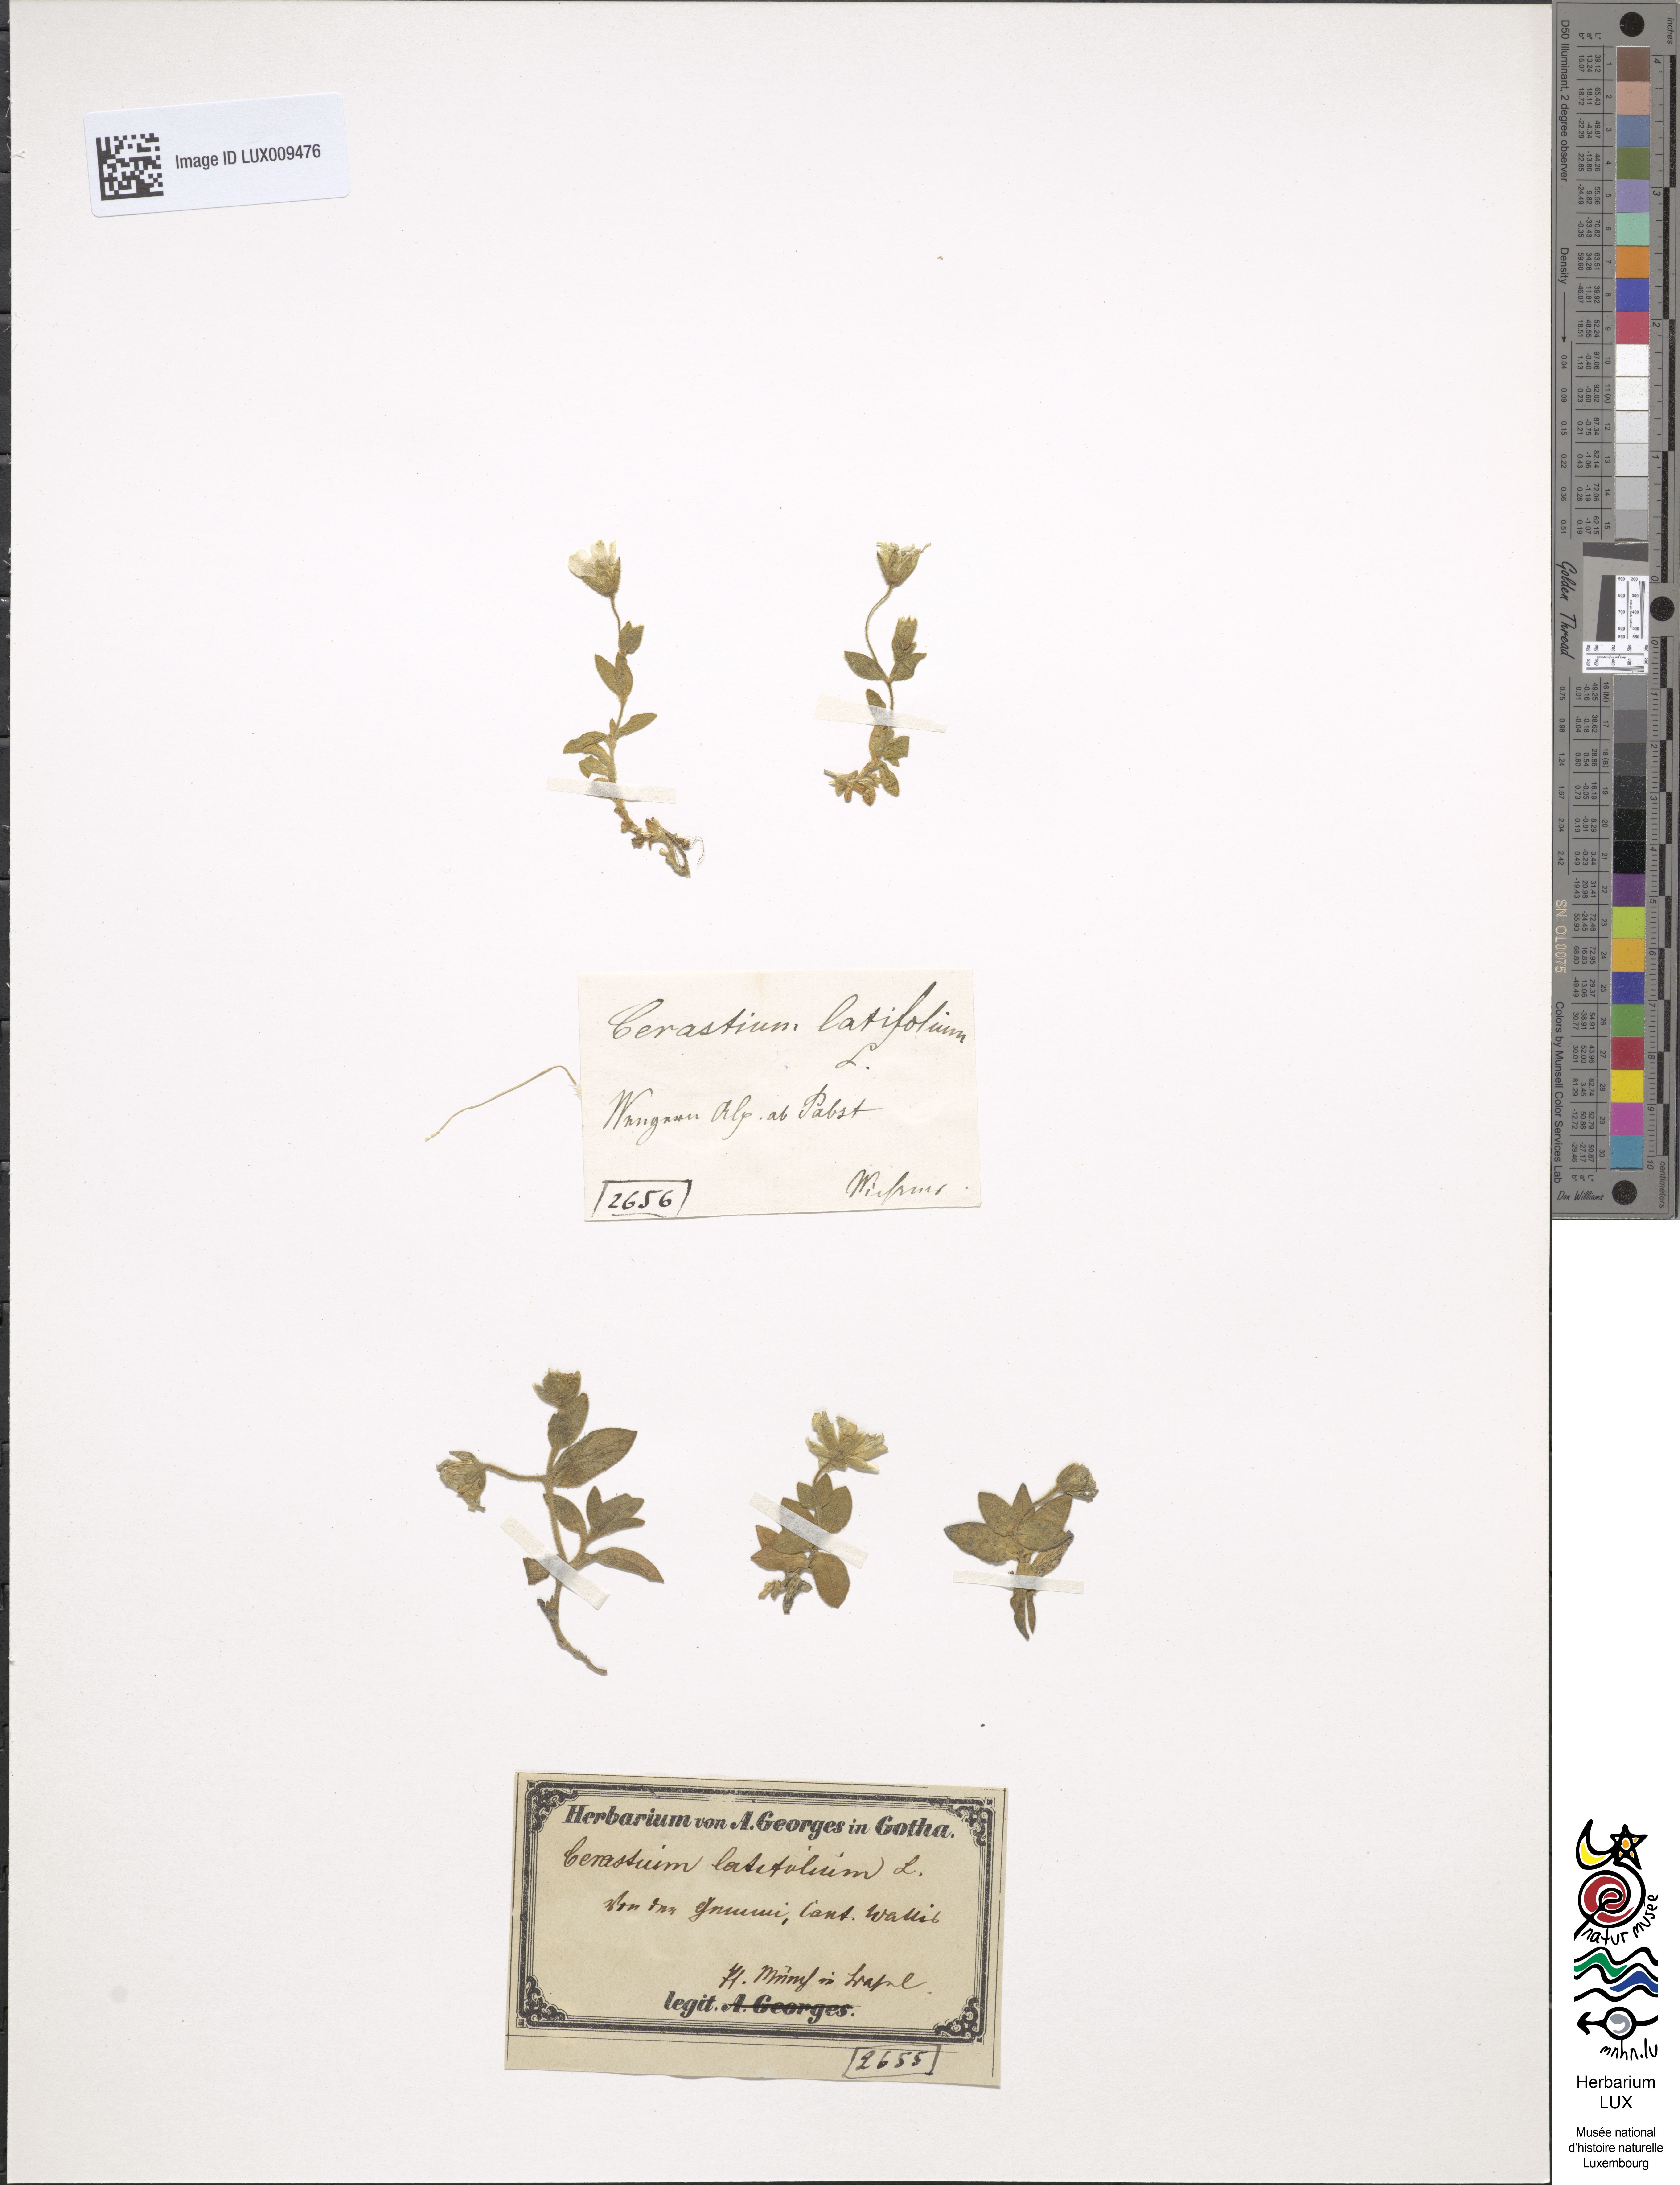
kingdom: Plantae
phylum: Tracheophyta
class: Magnoliopsida
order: Caryophyllales
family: Caryophyllaceae
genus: Cerastium
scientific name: Cerastium latifolium
